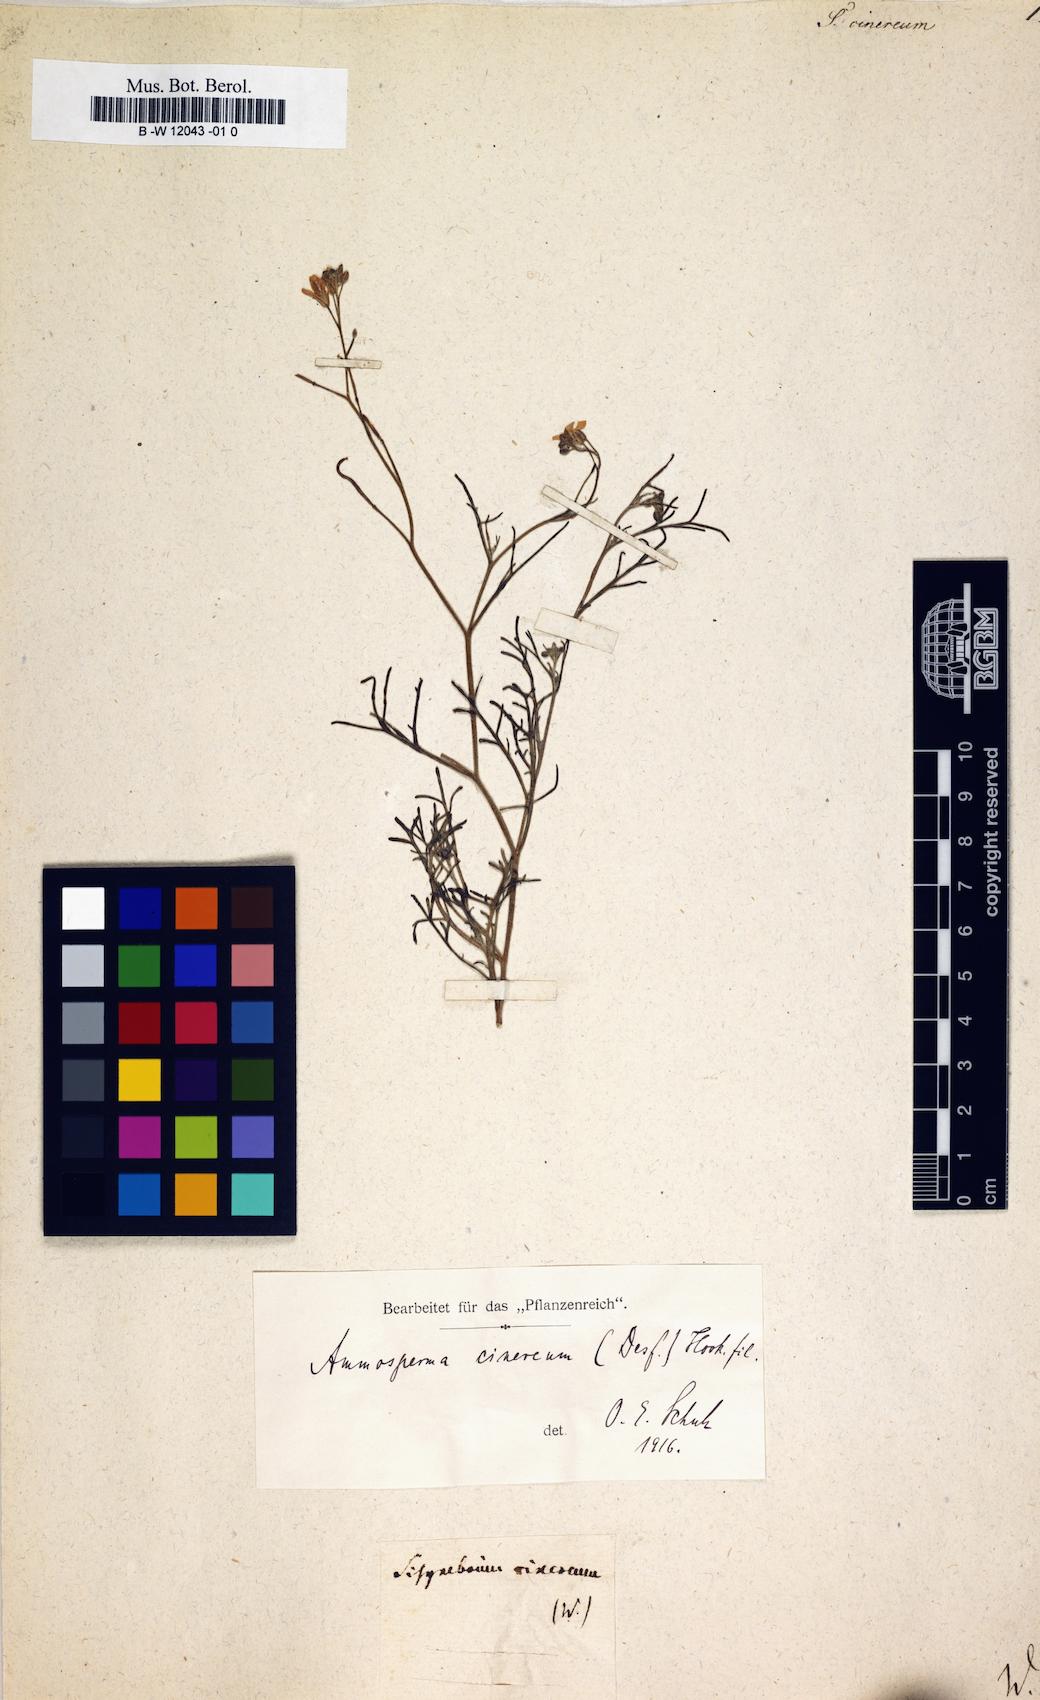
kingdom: Plantae
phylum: Tracheophyta
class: Magnoliopsida
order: Brassicales
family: Brassicaceae
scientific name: Brassicaceae
